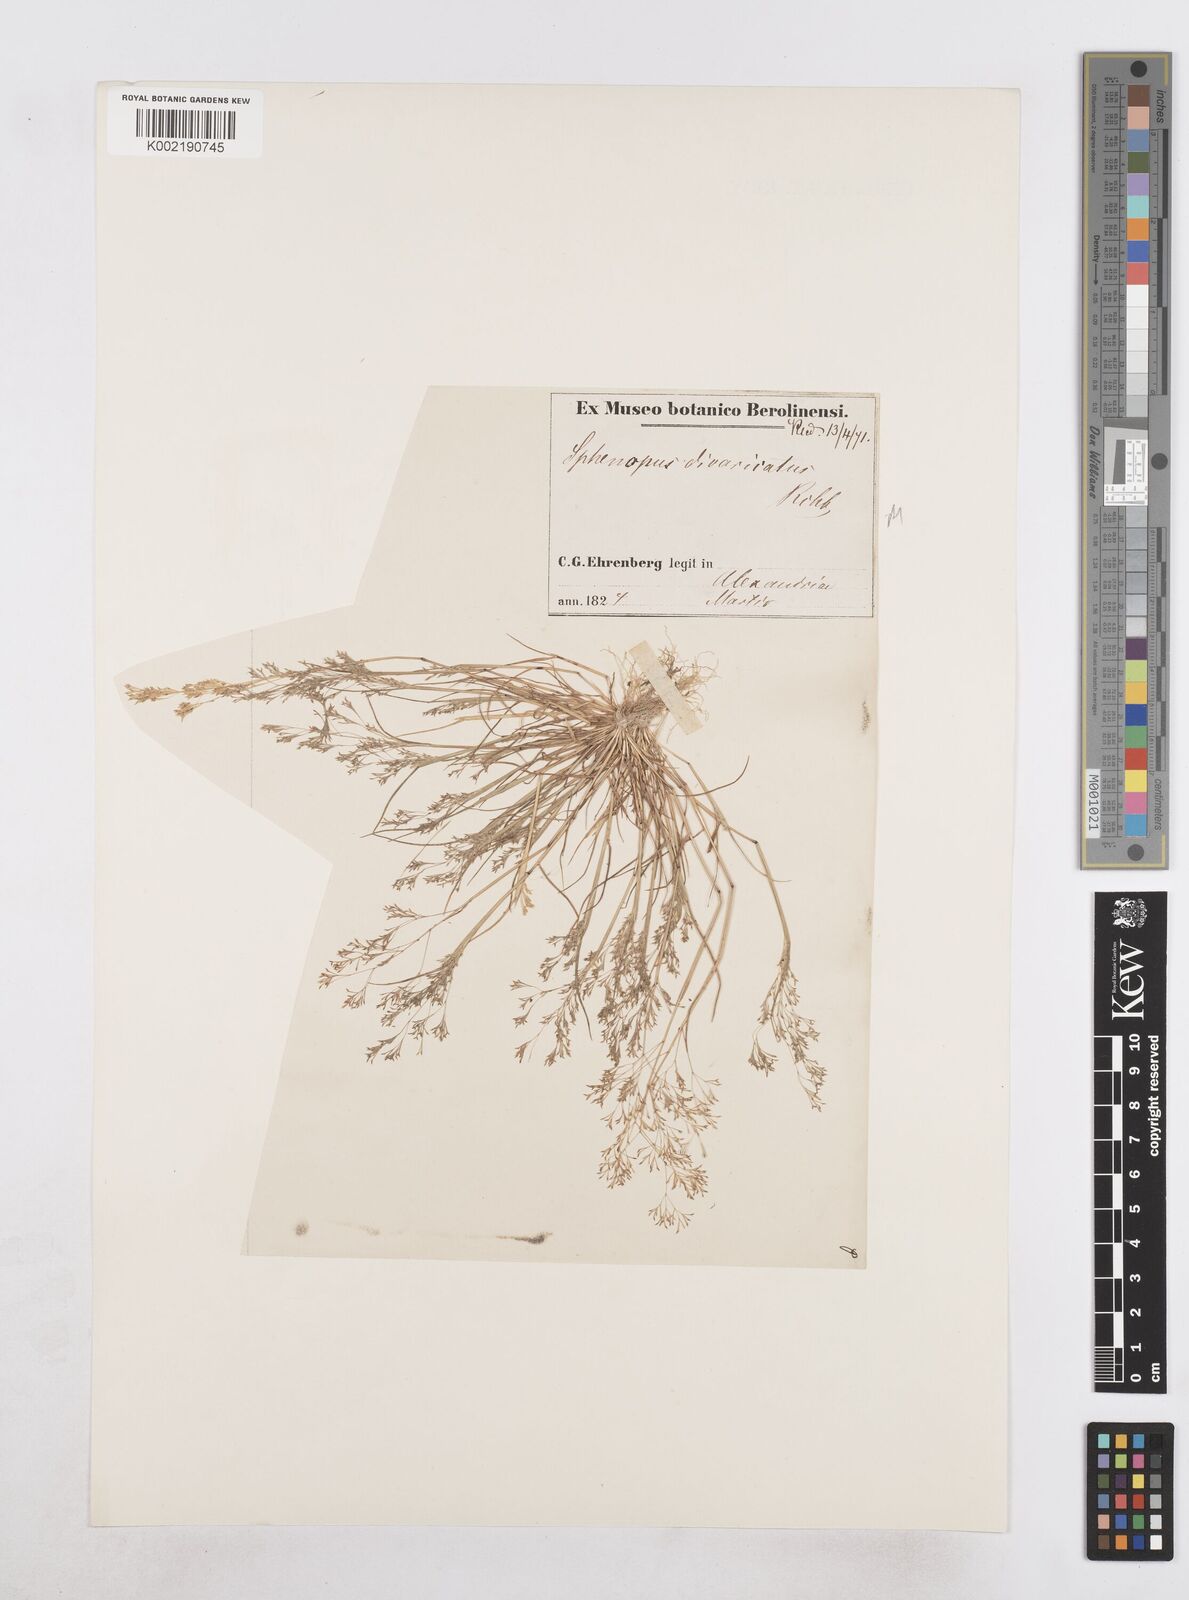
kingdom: Plantae
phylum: Tracheophyta
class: Liliopsida
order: Poales
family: Poaceae
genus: Sphenopus
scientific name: Sphenopus divaricatus
